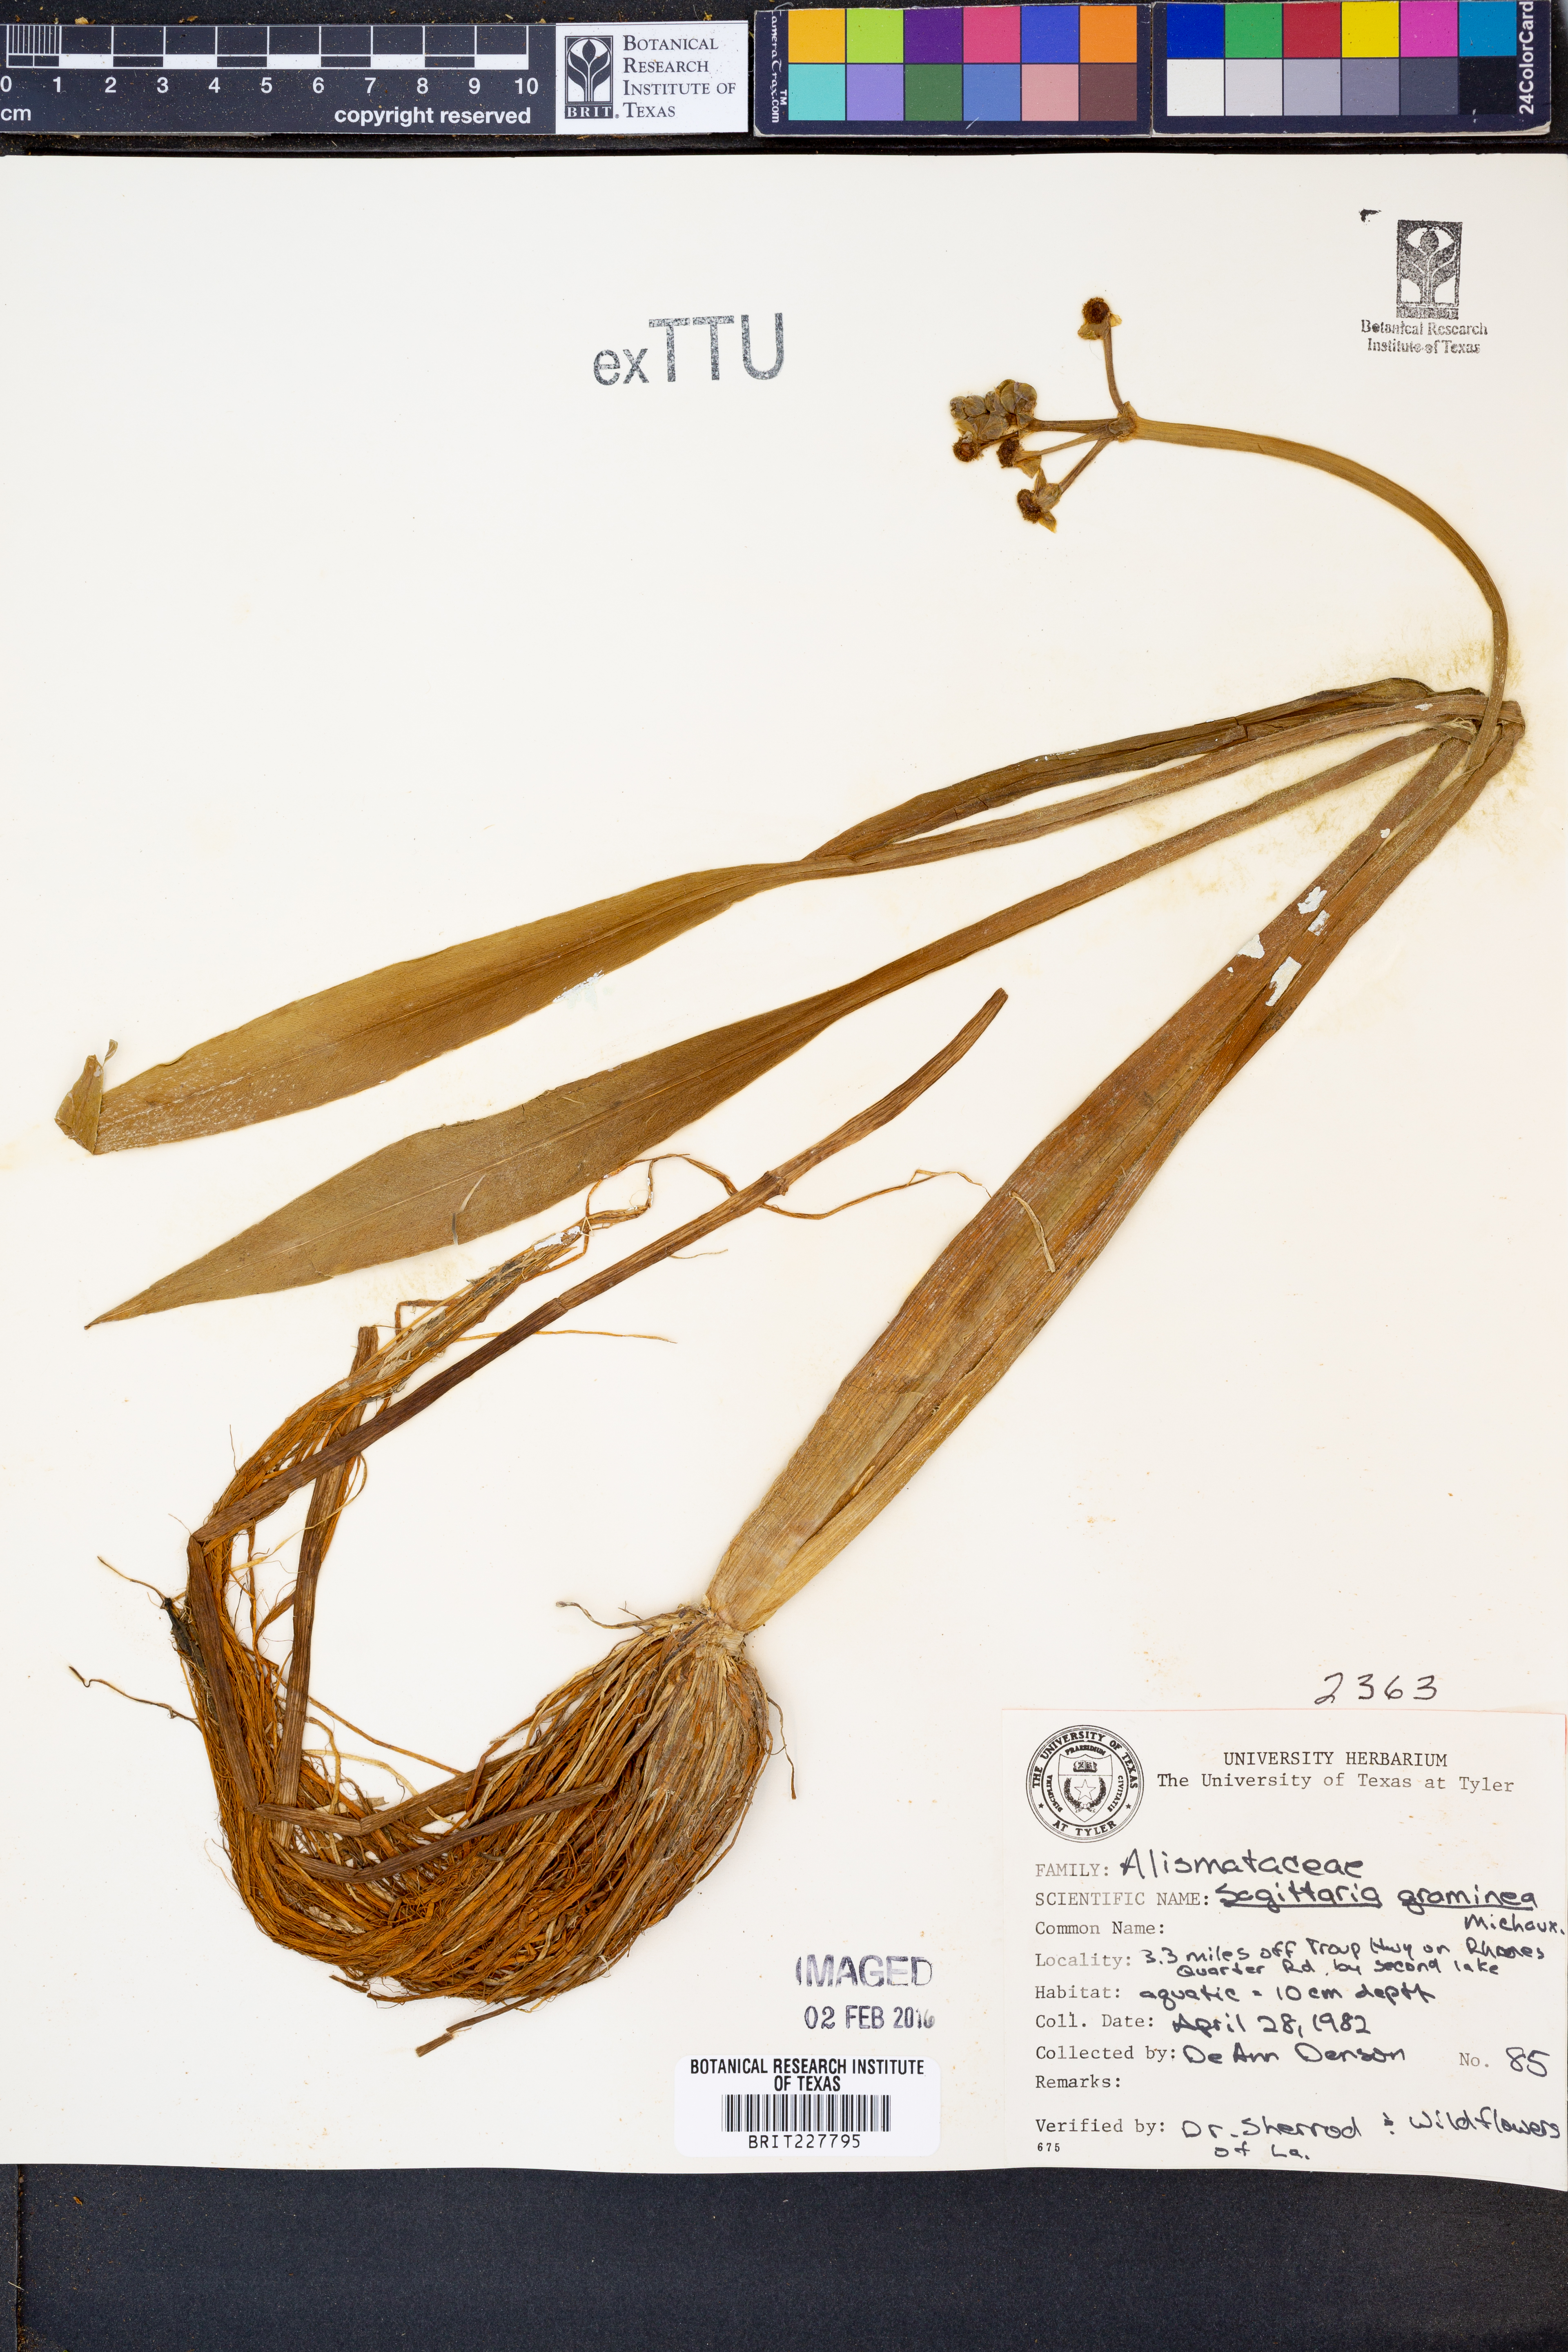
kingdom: Plantae
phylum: Tracheophyta
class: Liliopsida
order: Alismatales
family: Alismataceae
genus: Sagittaria
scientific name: Sagittaria graminea
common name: Grass-leaved arrowhead
